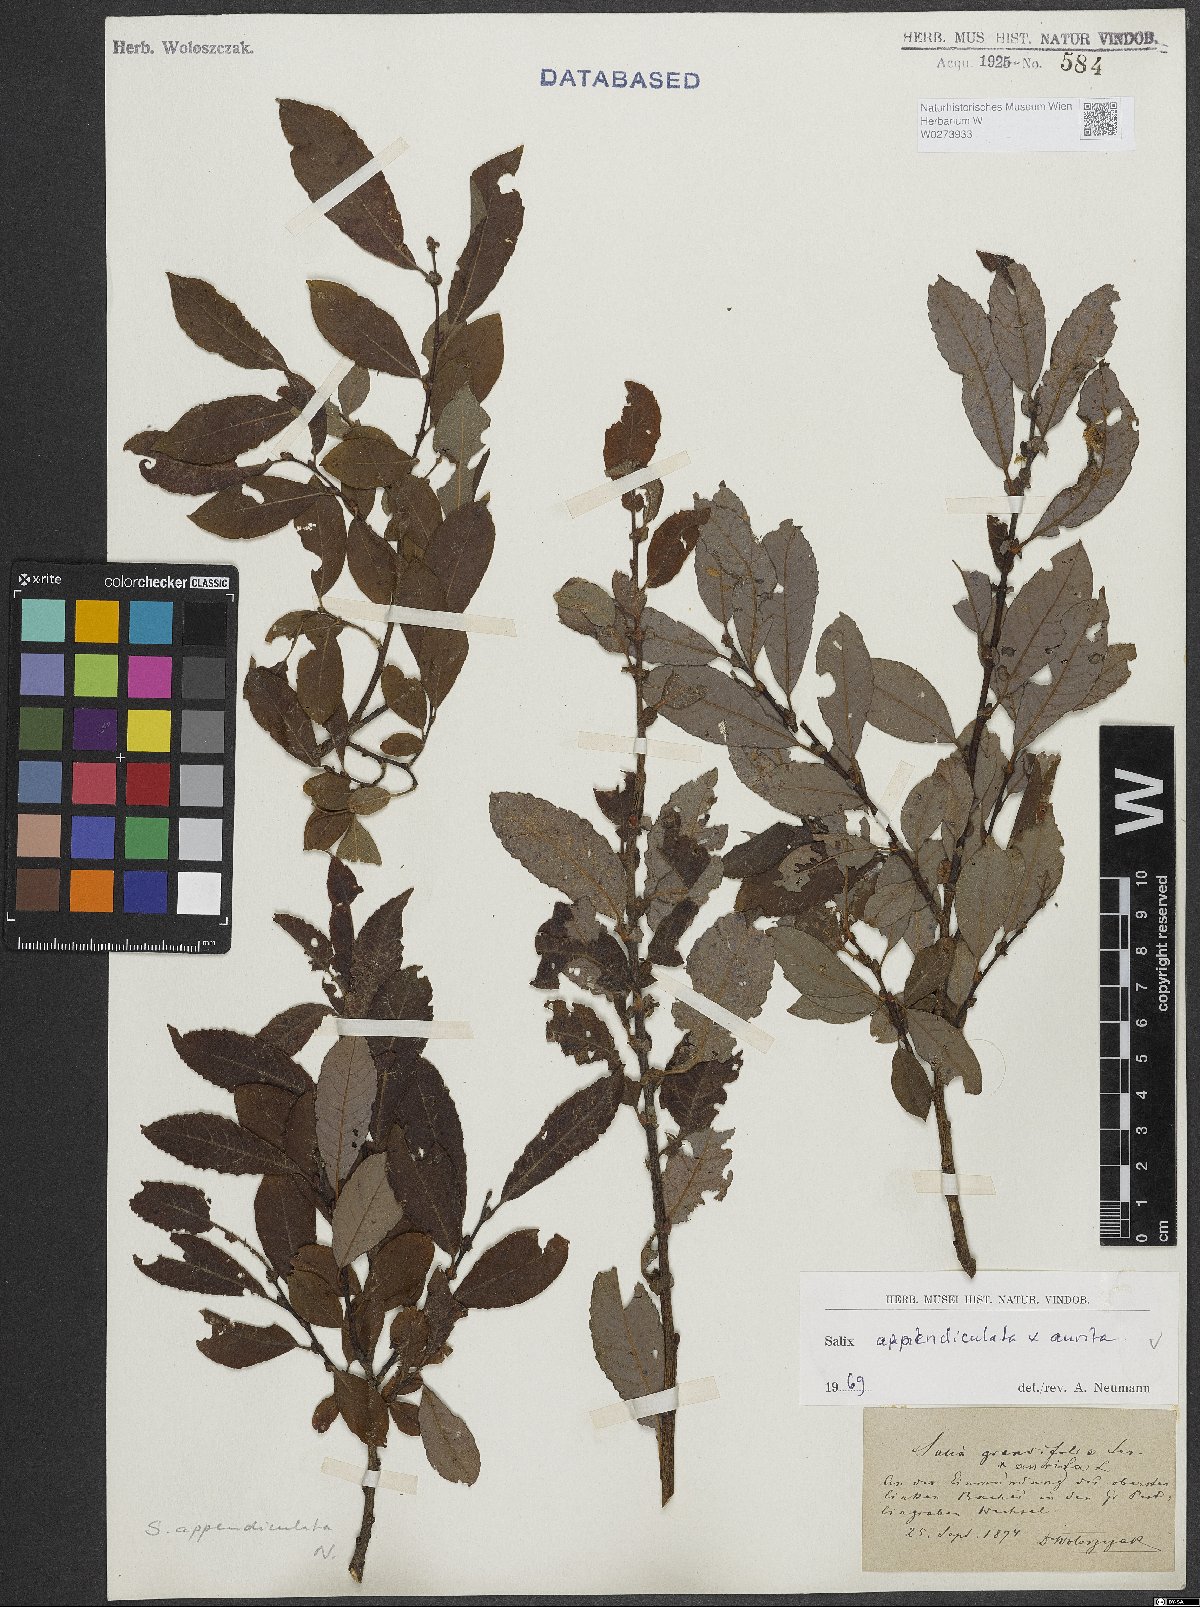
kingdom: Plantae
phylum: Tracheophyta
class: Magnoliopsida
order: Malpighiales
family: Salicaceae
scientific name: Salicaceae
